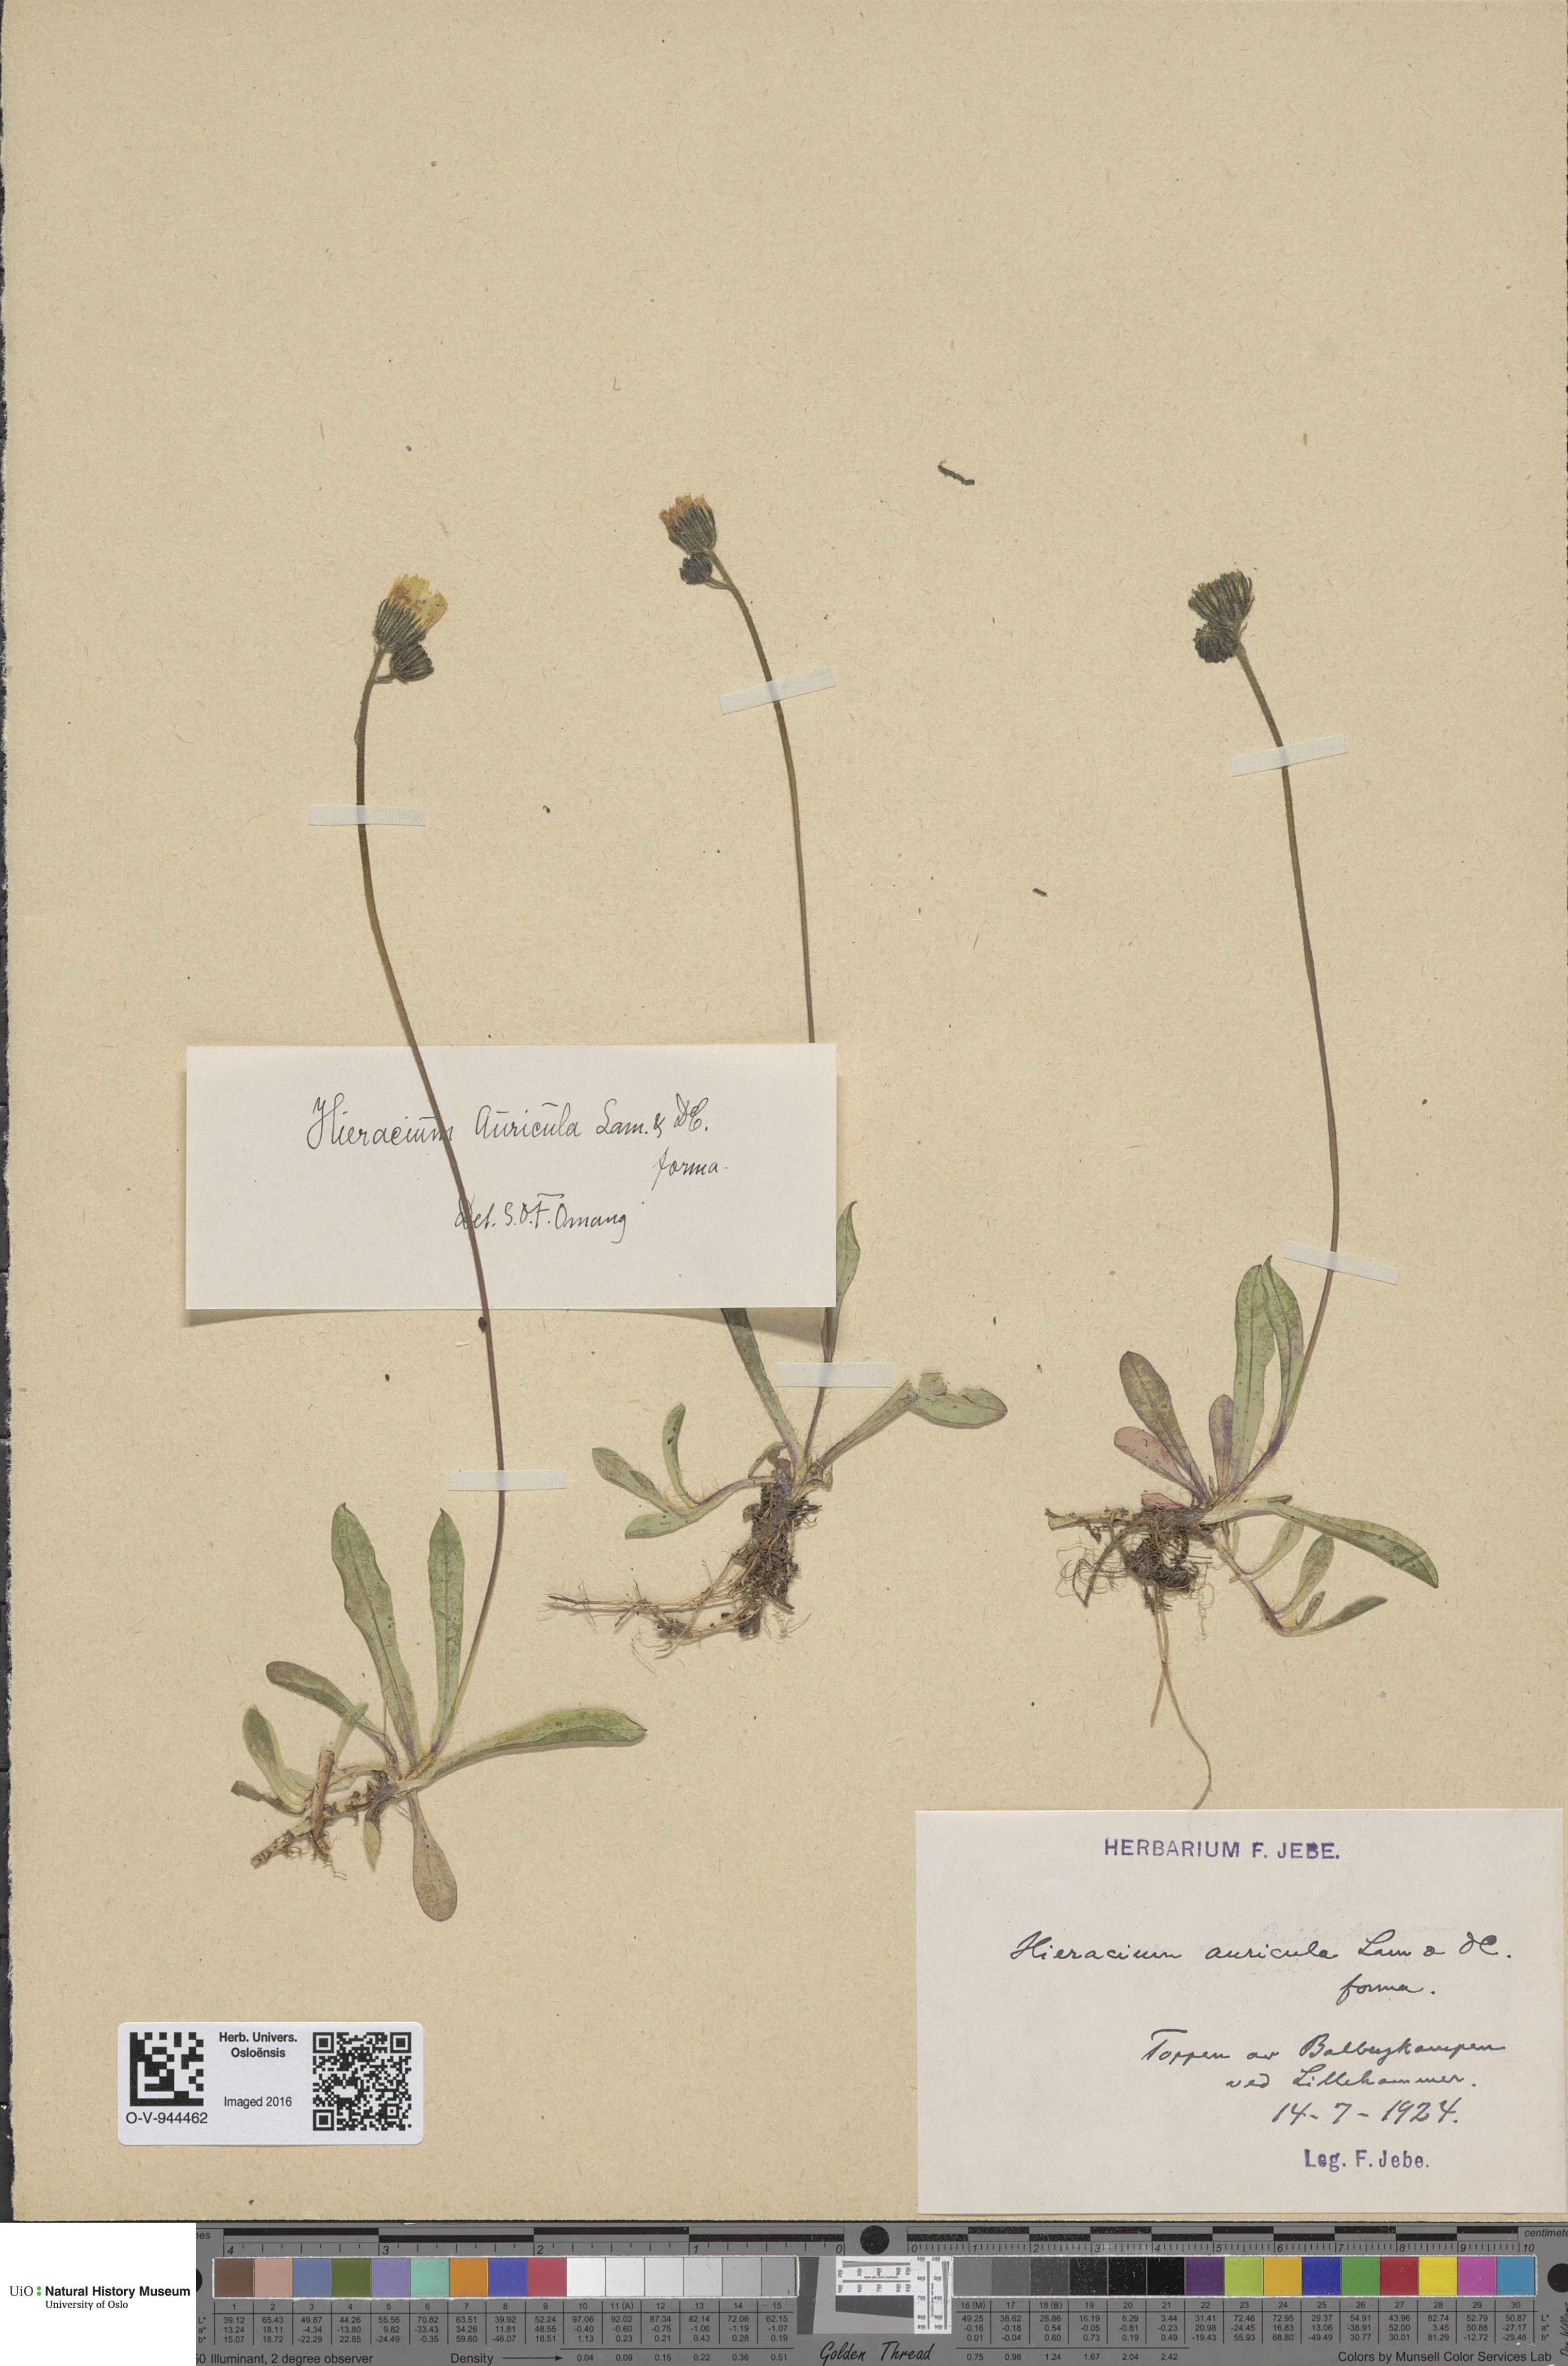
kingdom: Plantae
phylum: Tracheophyta
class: Magnoliopsida
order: Asterales
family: Asteraceae
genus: Pilosella
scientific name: Pilosella lactucella
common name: Glaucous fox-and-cubs
